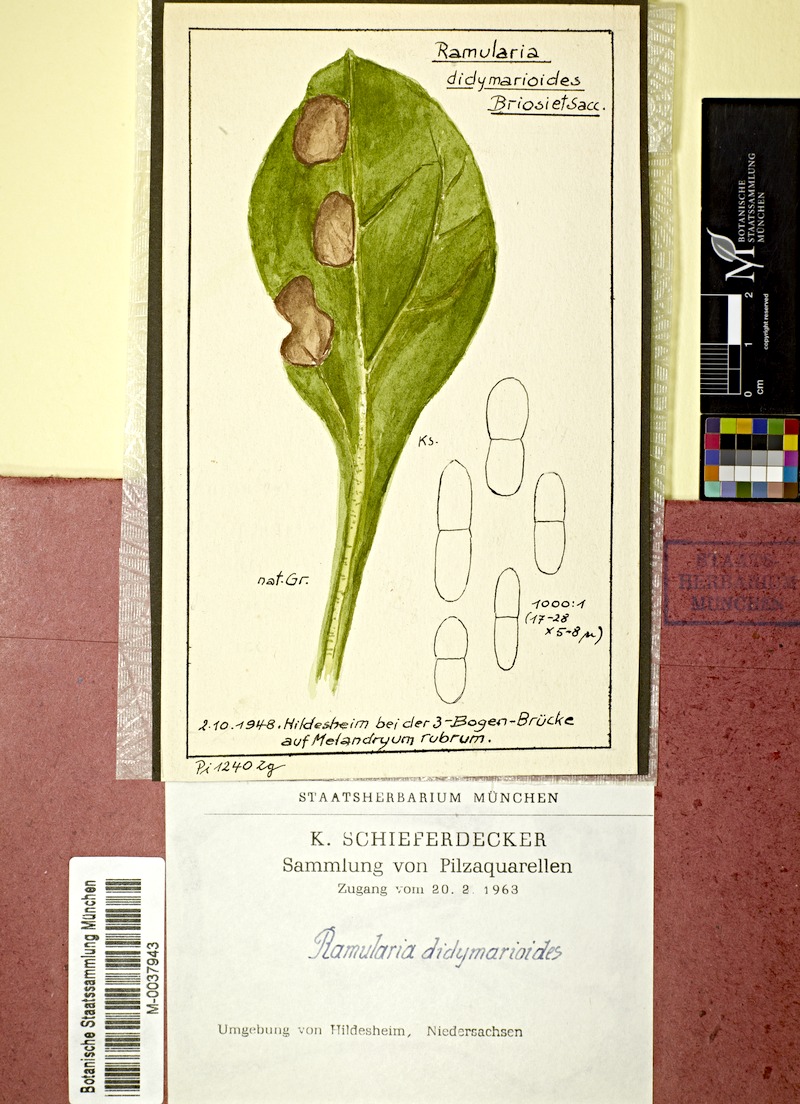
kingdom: Plantae
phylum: Tracheophyta
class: Magnoliopsida
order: Caryophyllales
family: Caryophyllaceae
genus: Silene
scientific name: Silene dioica
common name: Red campion
